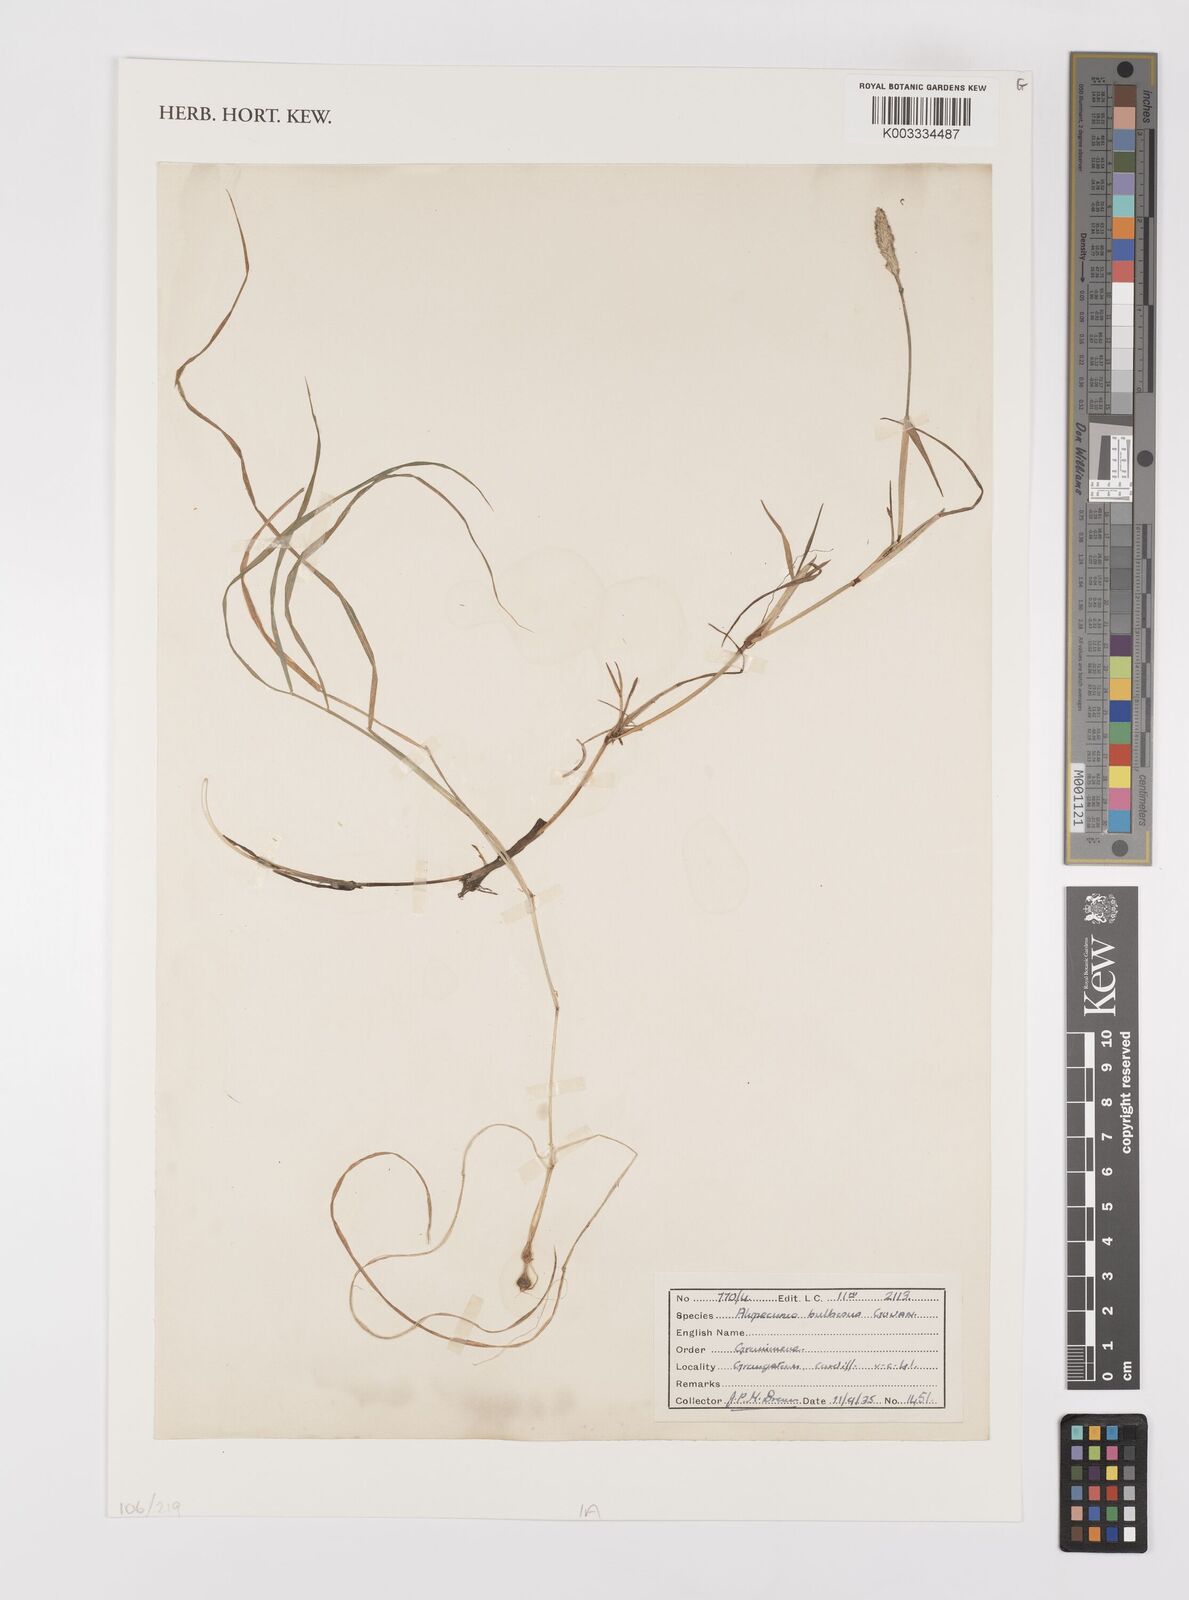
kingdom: Plantae
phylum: Tracheophyta
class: Liliopsida
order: Poales
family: Poaceae
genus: Alopecurus
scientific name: Alopecurus bulbosus
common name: Bulbous foxtail
